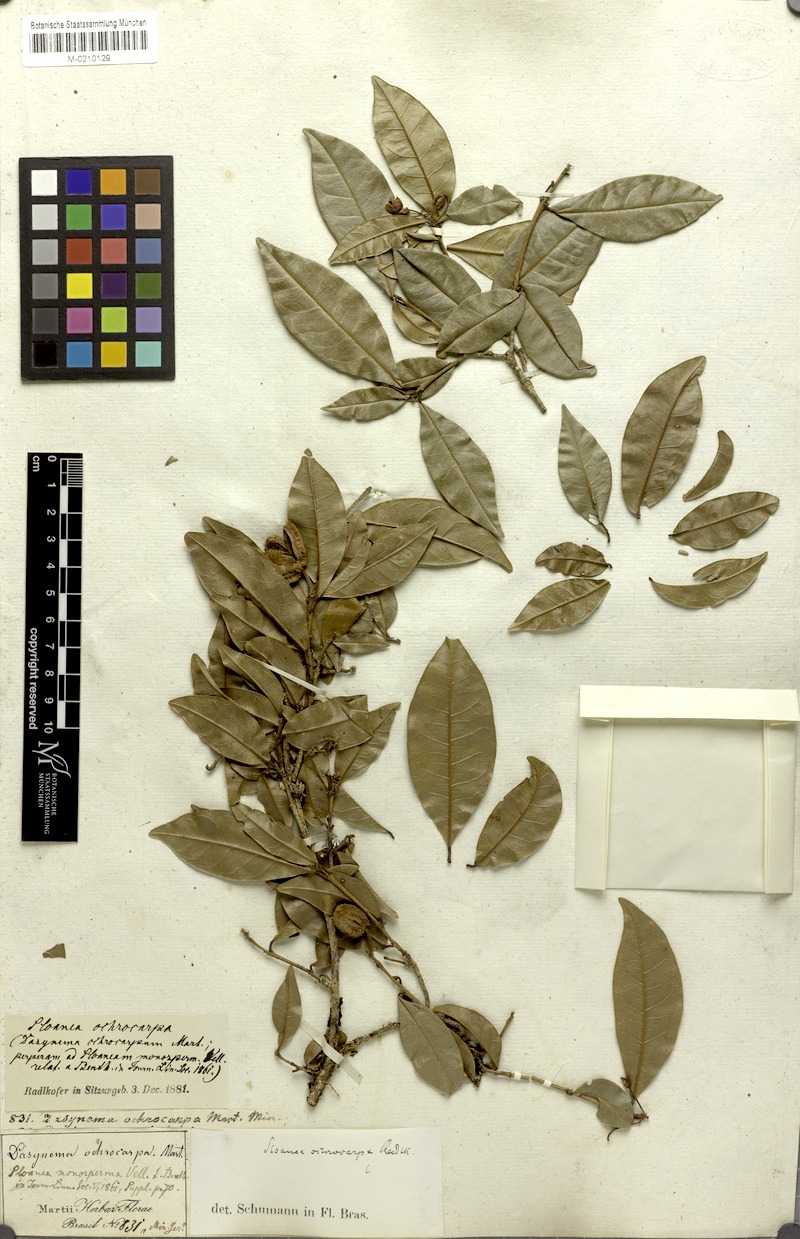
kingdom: Plantae
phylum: Tracheophyta
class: Magnoliopsida
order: Oxalidales
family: Elaeocarpaceae
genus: Sloanea
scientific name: Sloanea hirsuta
